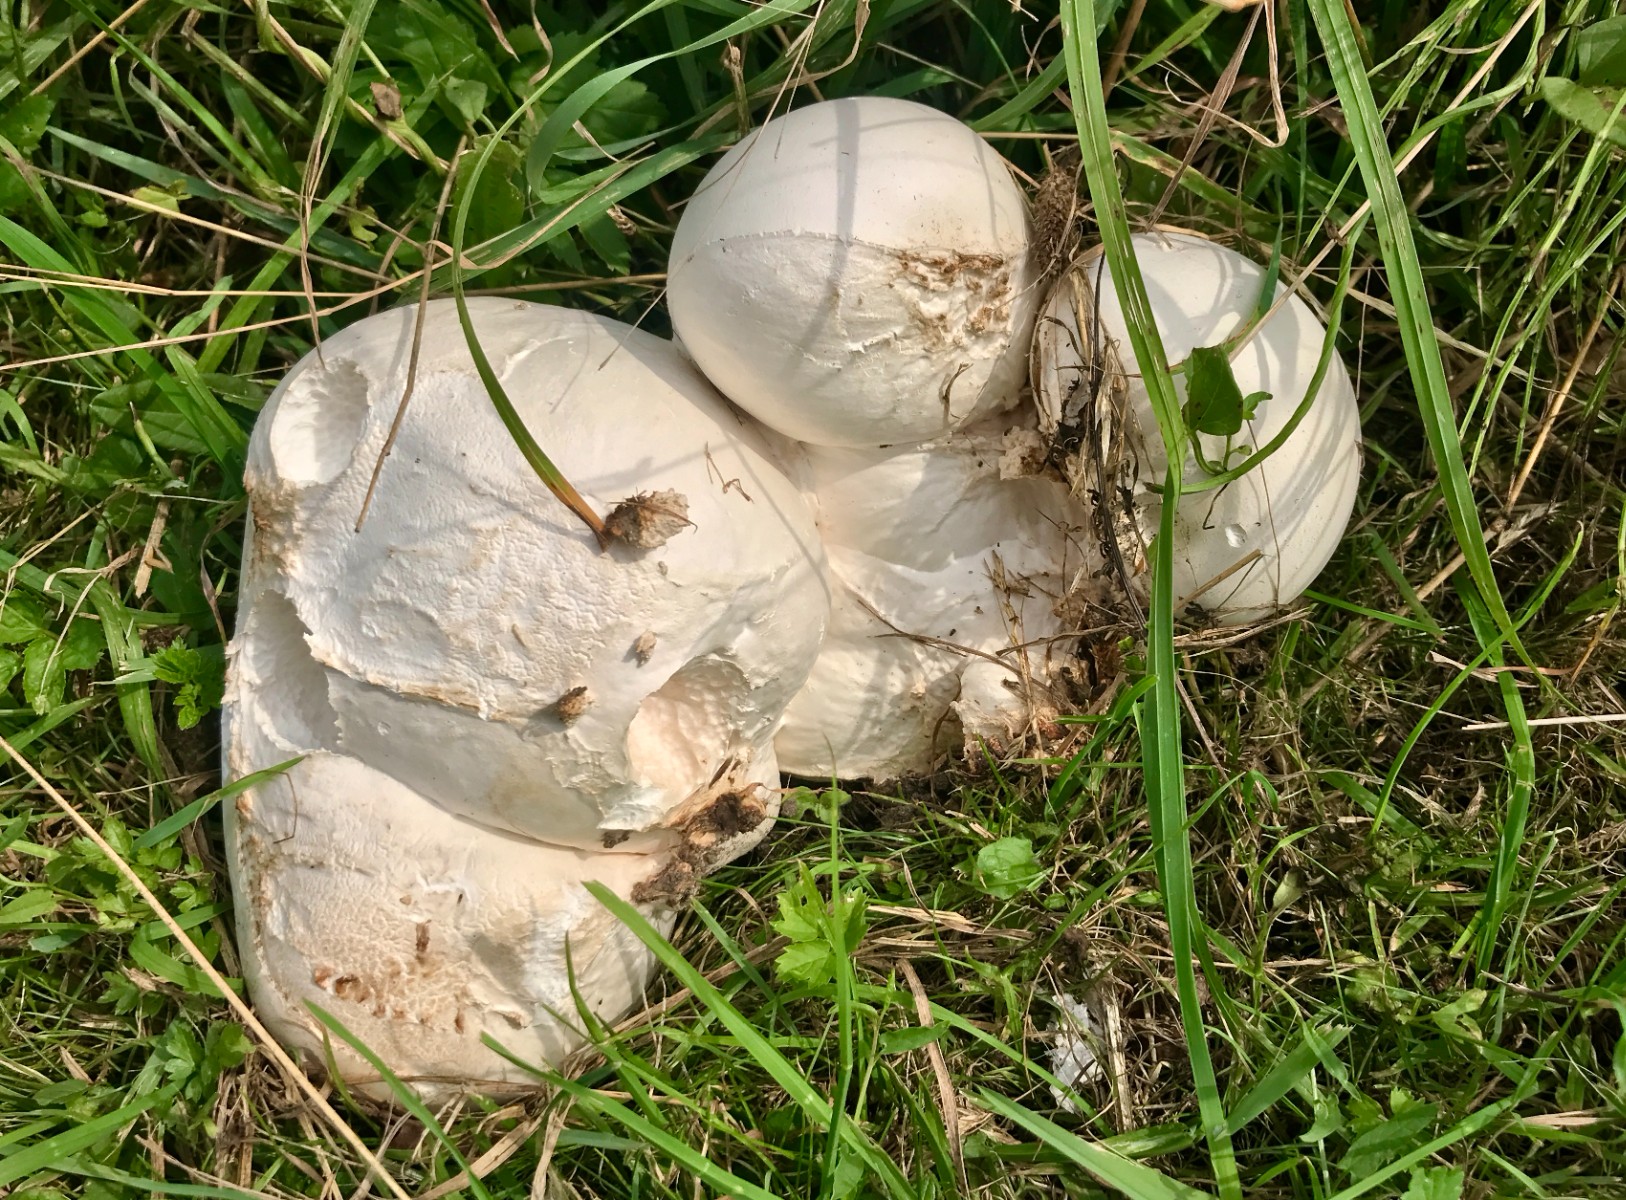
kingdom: Fungi
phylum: Basidiomycota
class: Agaricomycetes
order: Agaricales
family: Lycoperdaceae
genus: Calvatia
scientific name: Calvatia gigantea
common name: kæmpestøvbold
